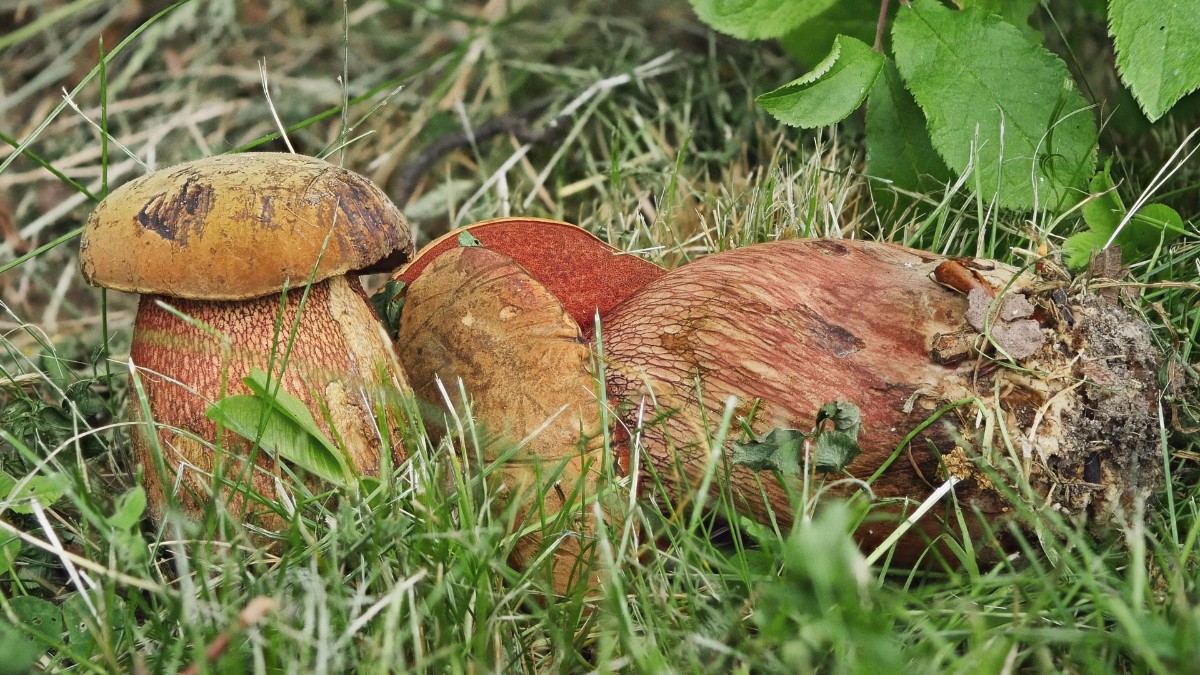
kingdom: Fungi
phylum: Basidiomycota
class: Agaricomycetes
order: Boletales
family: Boletaceae
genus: Suillellus
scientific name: Suillellus luridus
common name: netstokket indigorørhat
